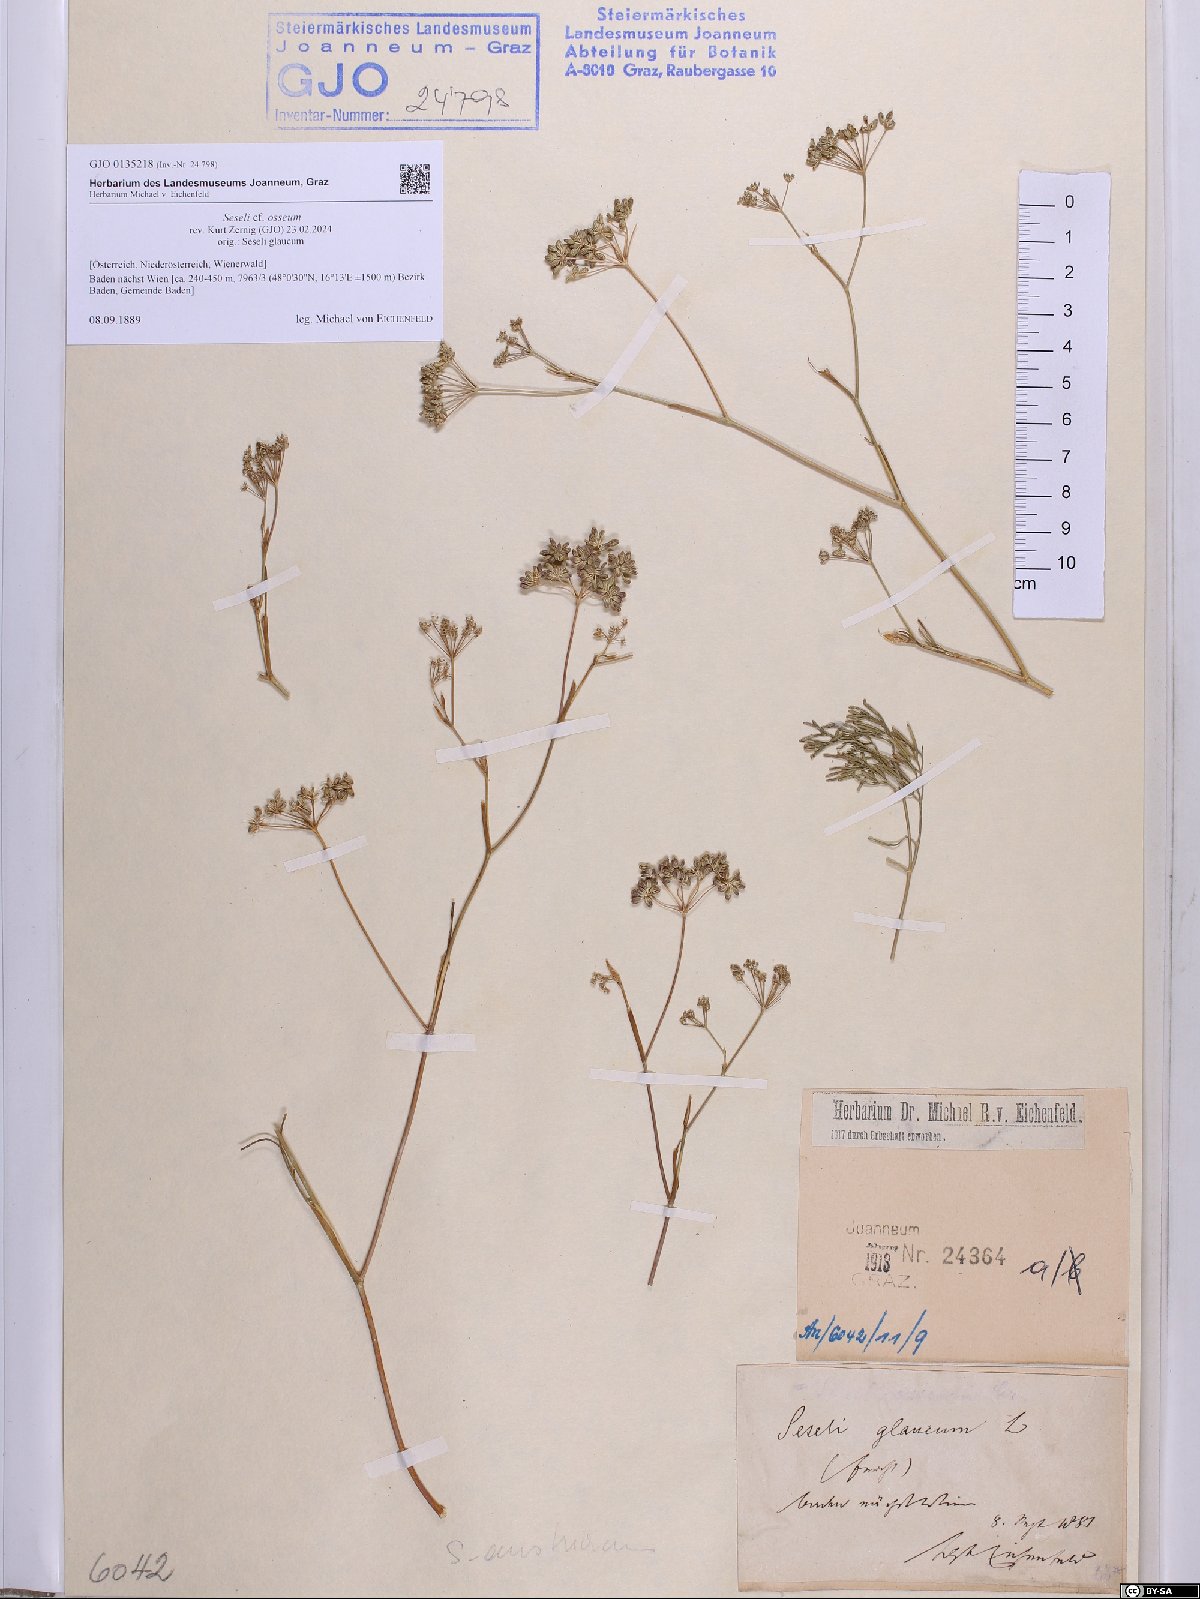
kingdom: Plantae
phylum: Tracheophyta
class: Magnoliopsida
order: Apiales
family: Apiaceae
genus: Seseli
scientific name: Seseli osseum
